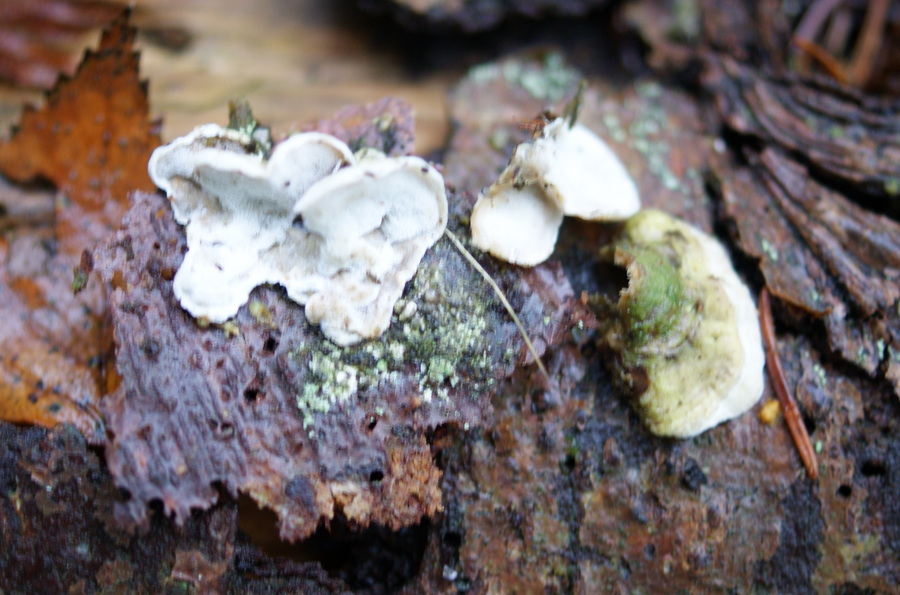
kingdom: Fungi
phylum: Basidiomycota
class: Agaricomycetes
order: Polyporales
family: Incrustoporiaceae
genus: Skeletocutis
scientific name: Skeletocutis carneogrisea
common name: rødgrå krystalporesvamp
